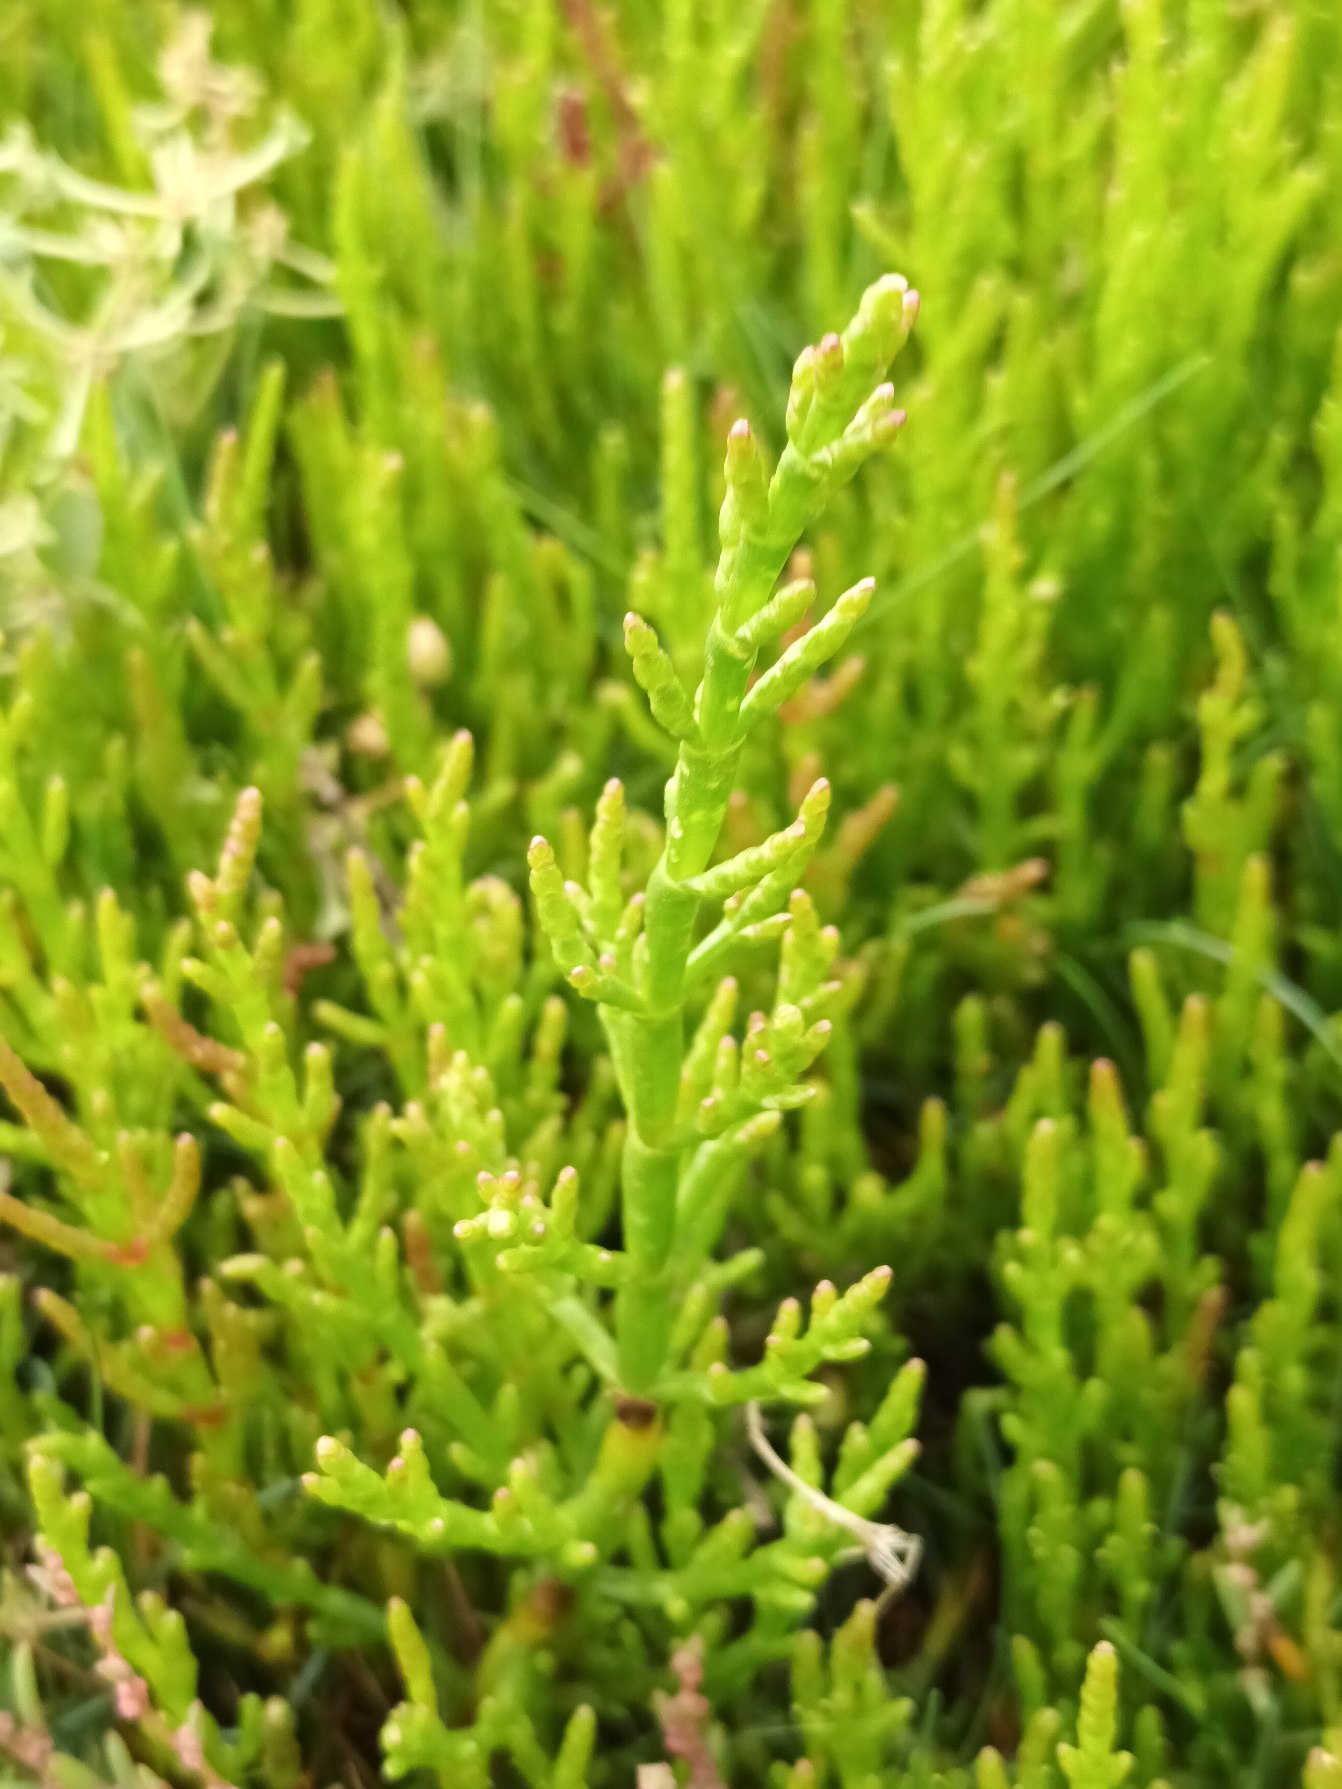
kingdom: Plantae
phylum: Tracheophyta
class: Magnoliopsida
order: Caryophyllales
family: Amaranthaceae
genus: Salicornia
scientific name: Salicornia europaea
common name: Almindelig salturt
